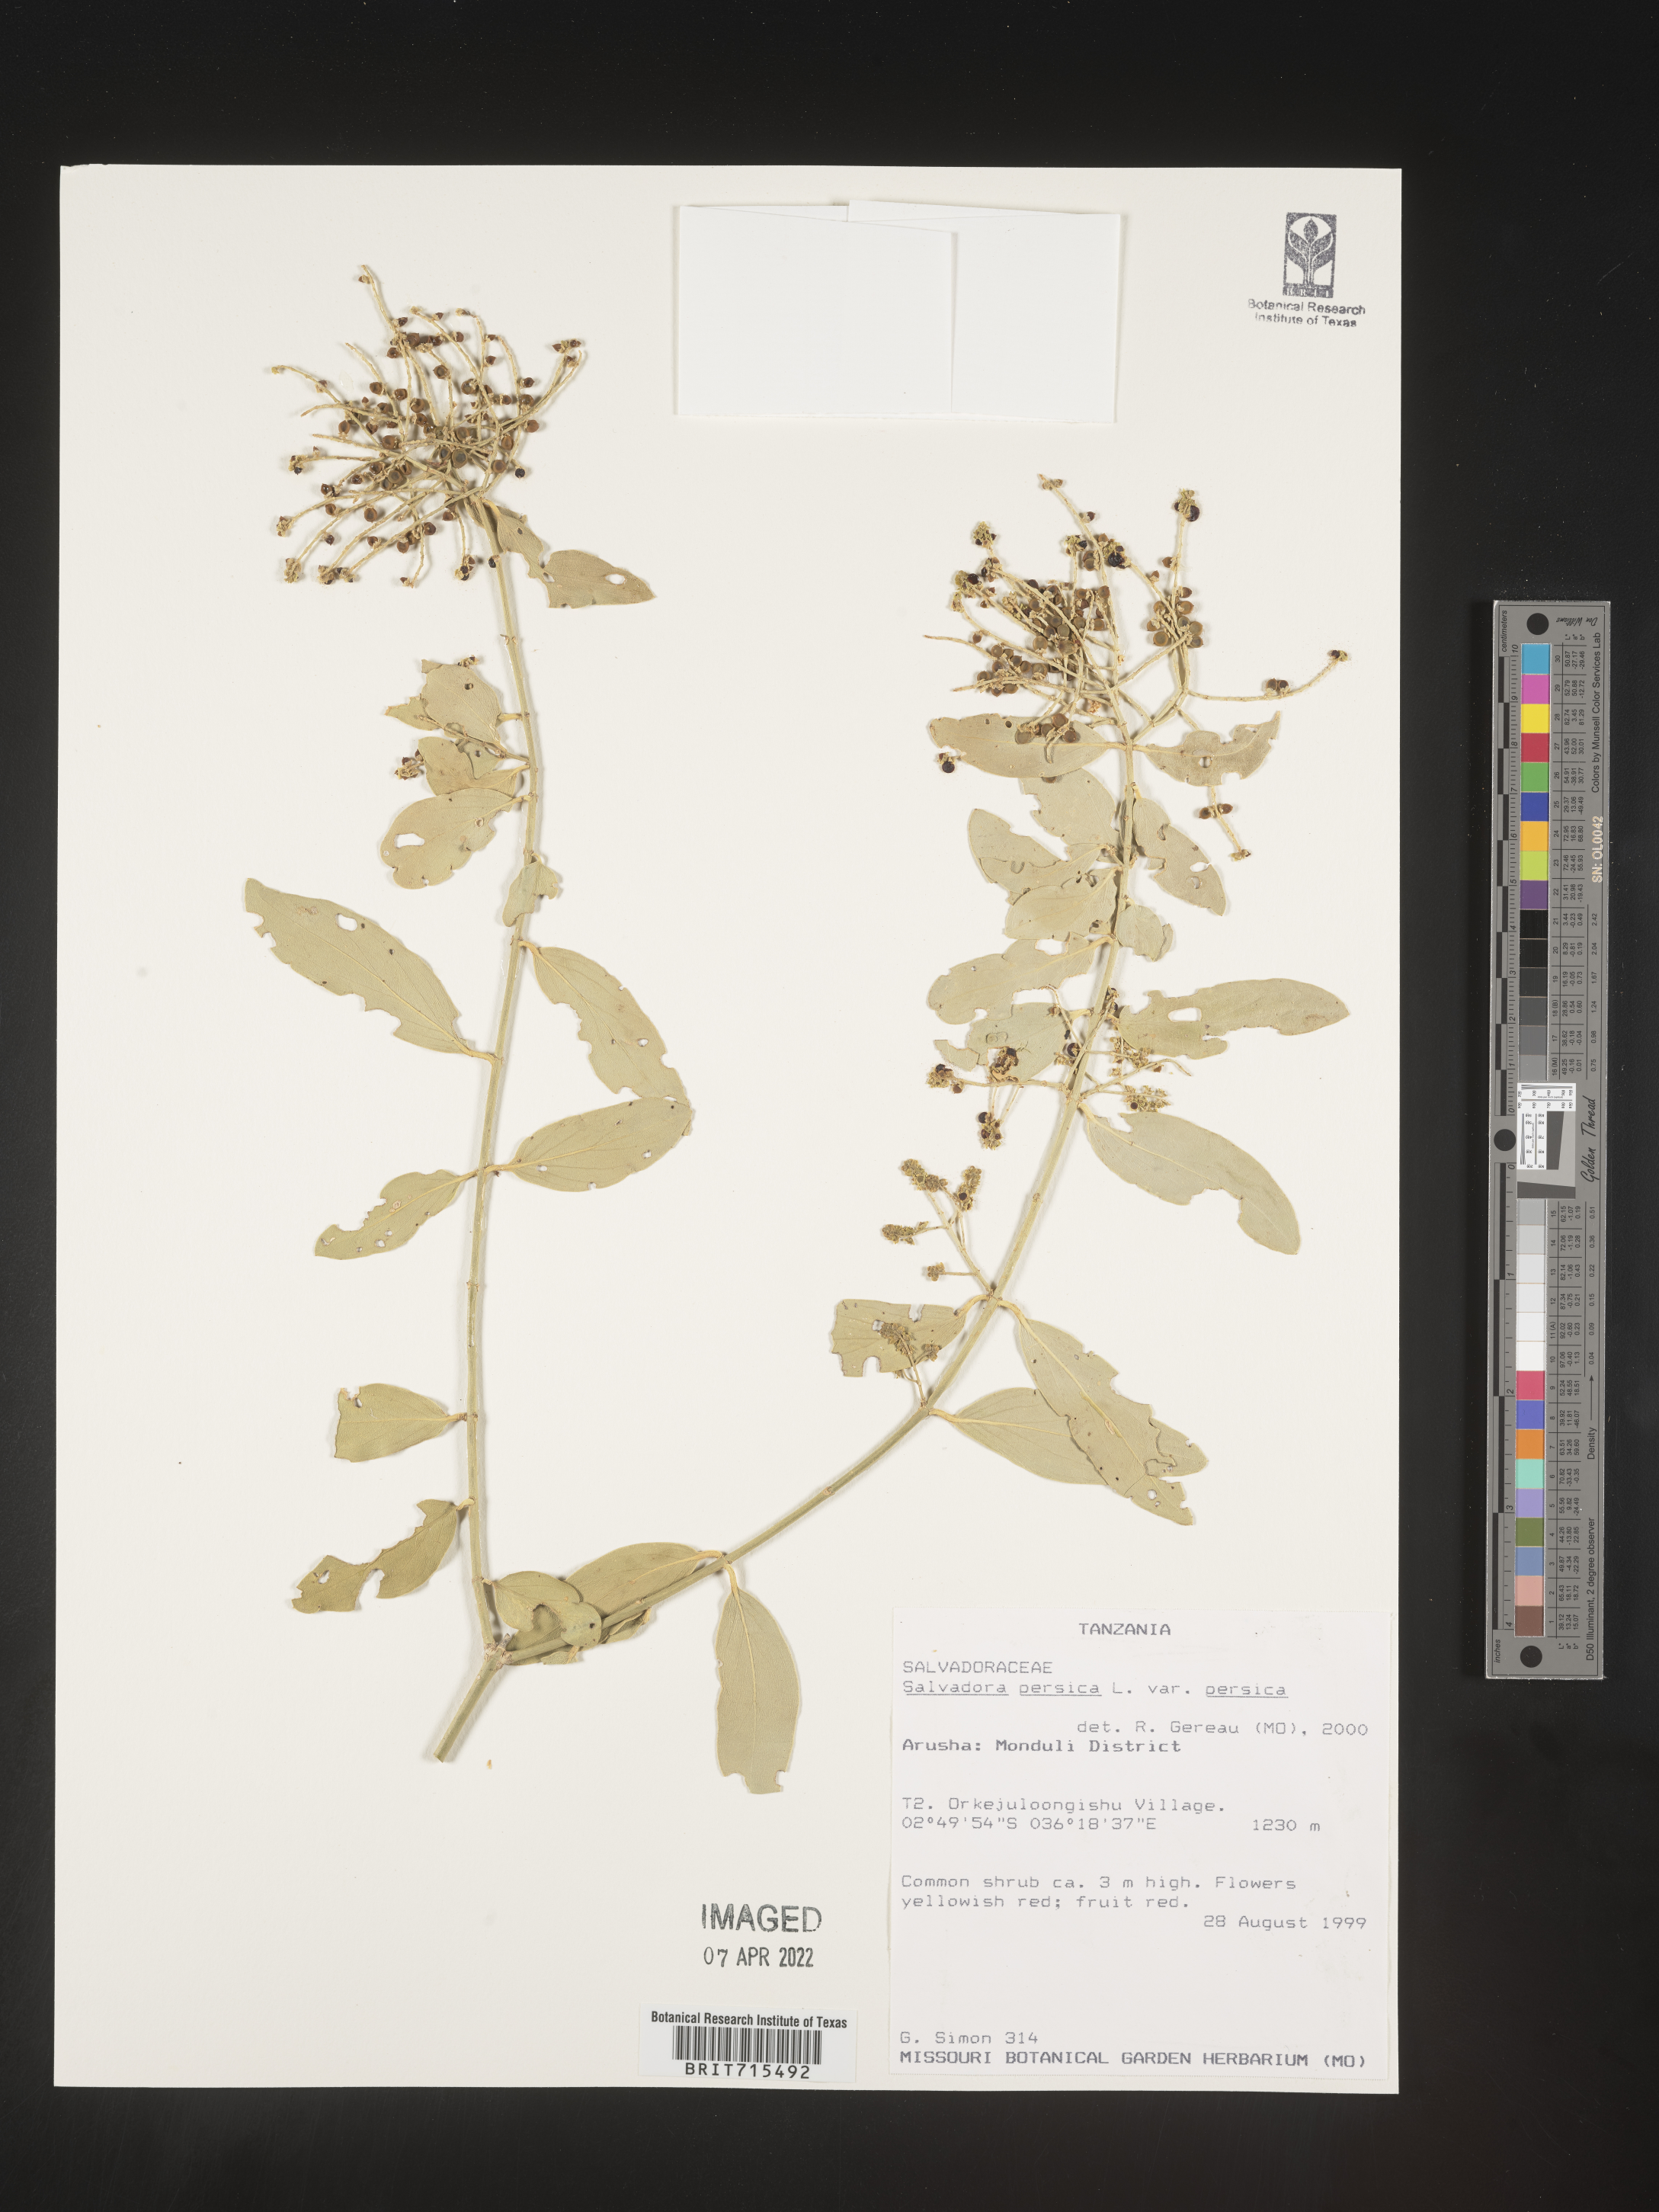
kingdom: Plantae
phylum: Tracheophyta
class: Magnoliopsida
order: Brassicales
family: Salvadoraceae
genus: Salvadora
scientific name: Salvadora
